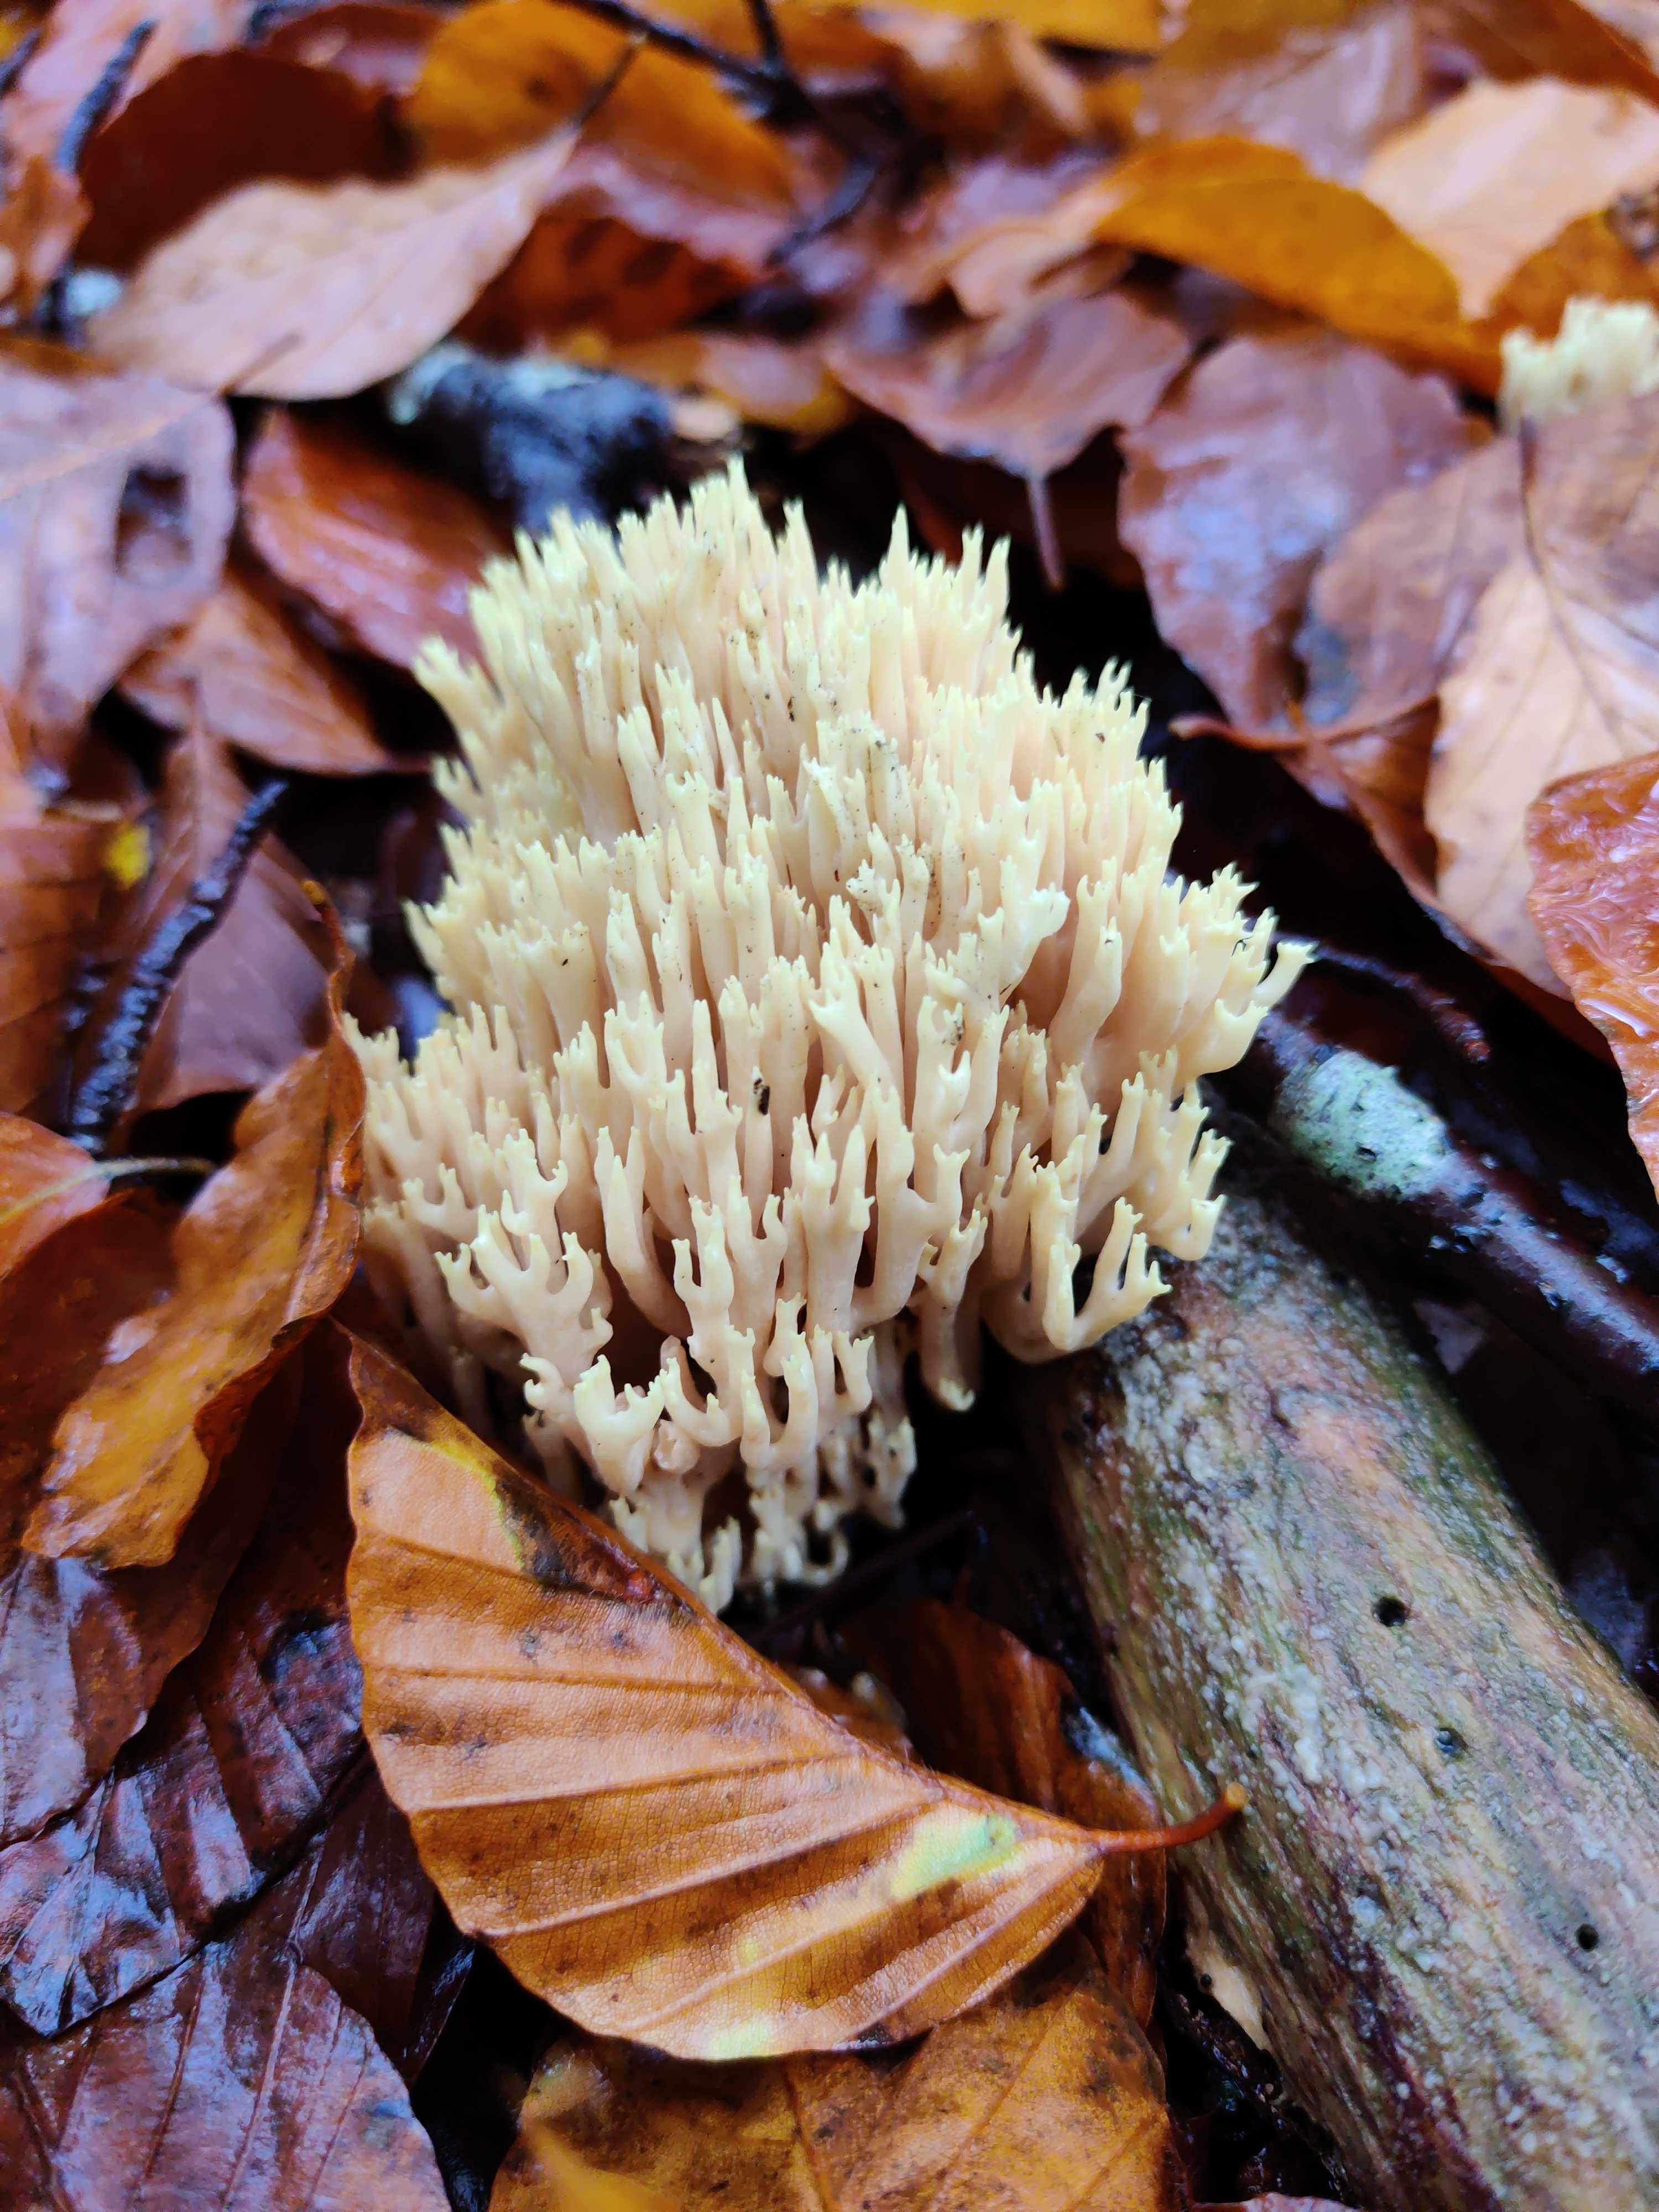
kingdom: Fungi
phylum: Basidiomycota
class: Agaricomycetes
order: Gomphales
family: Gomphaceae
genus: Ramaria
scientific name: Ramaria stricta
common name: rank koralsvamp
